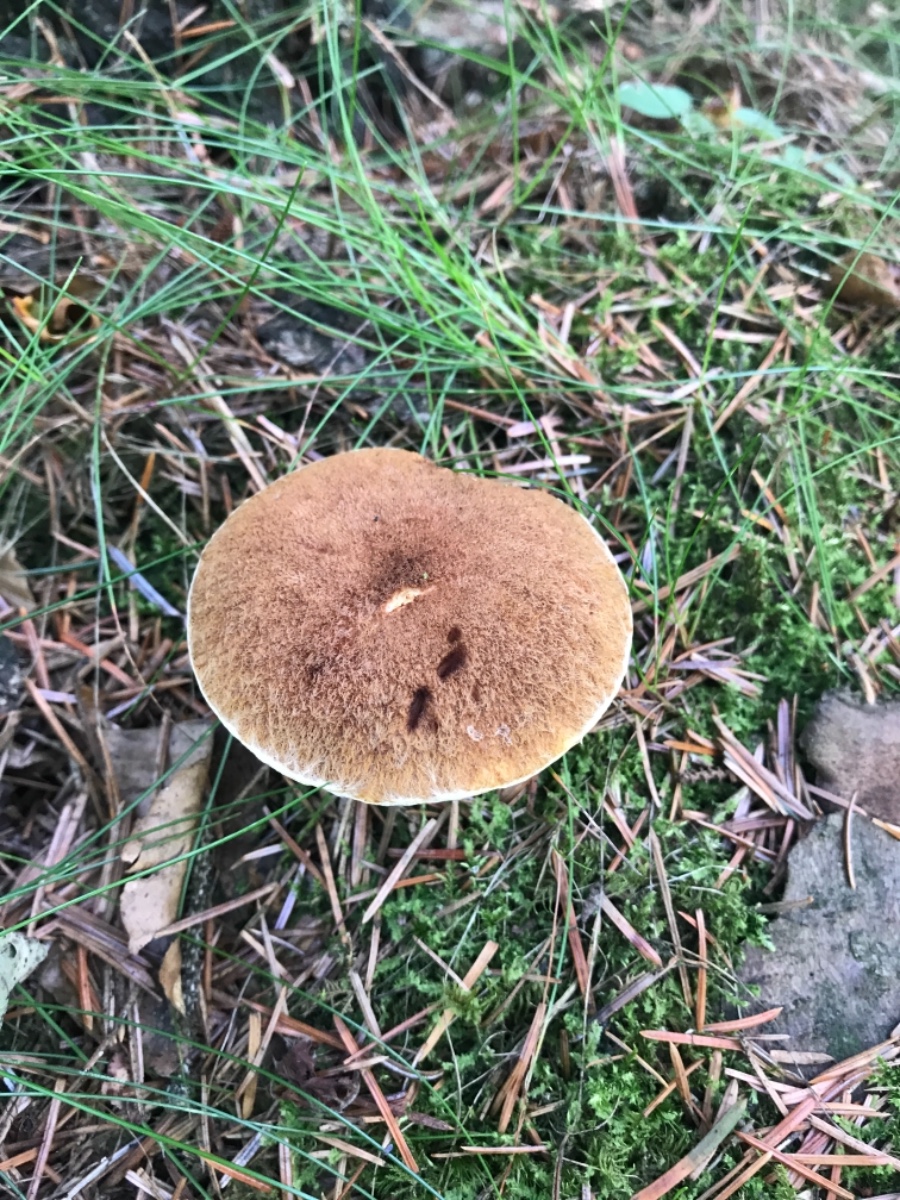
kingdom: Fungi
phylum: Basidiomycota
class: Agaricomycetes
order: Boletales
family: Suillaceae
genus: Suillus
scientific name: Suillus cavipes
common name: hulstokket slimrørhat
